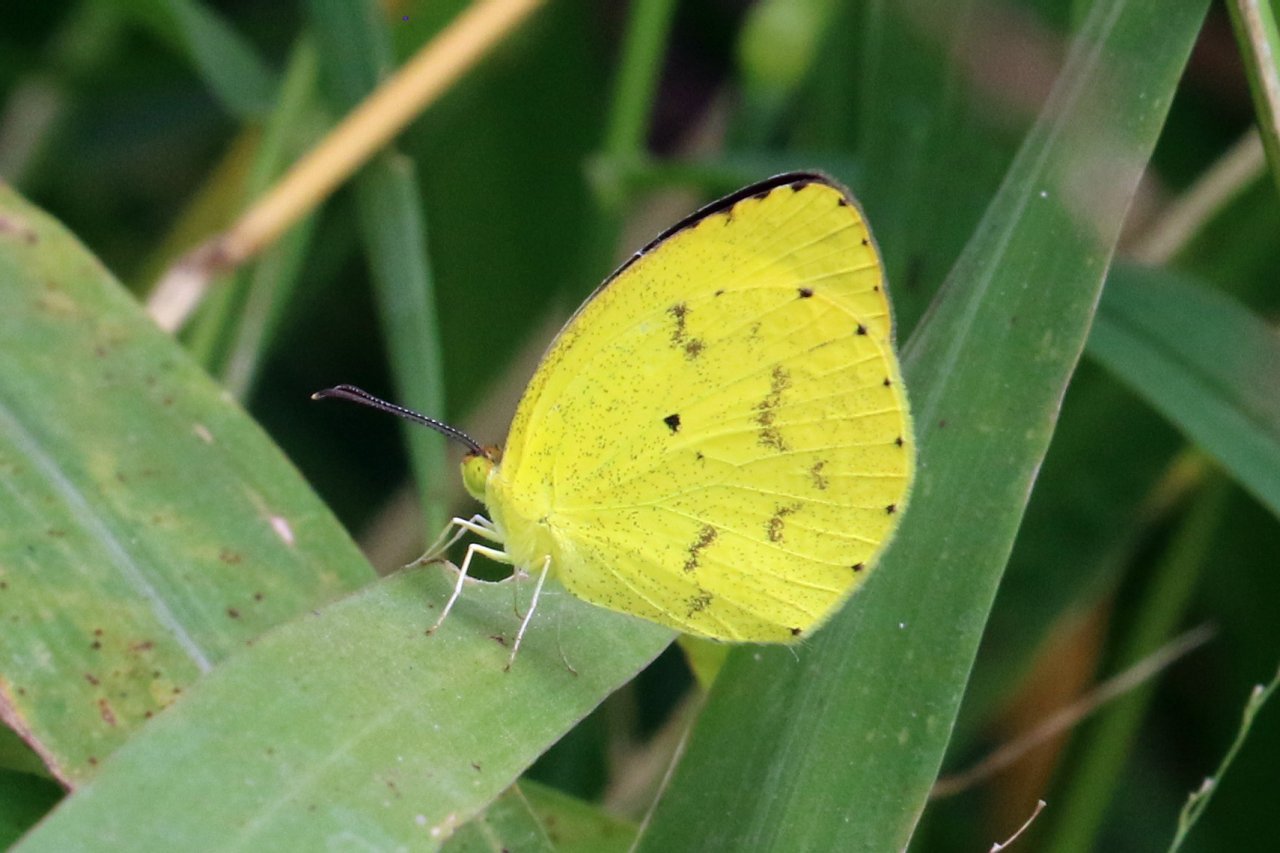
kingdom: Animalia
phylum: Arthropoda
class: Insecta
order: Lepidoptera
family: Pieridae
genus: Pyrisitia
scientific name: Pyrisitia nise
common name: Mimosa Yellow
